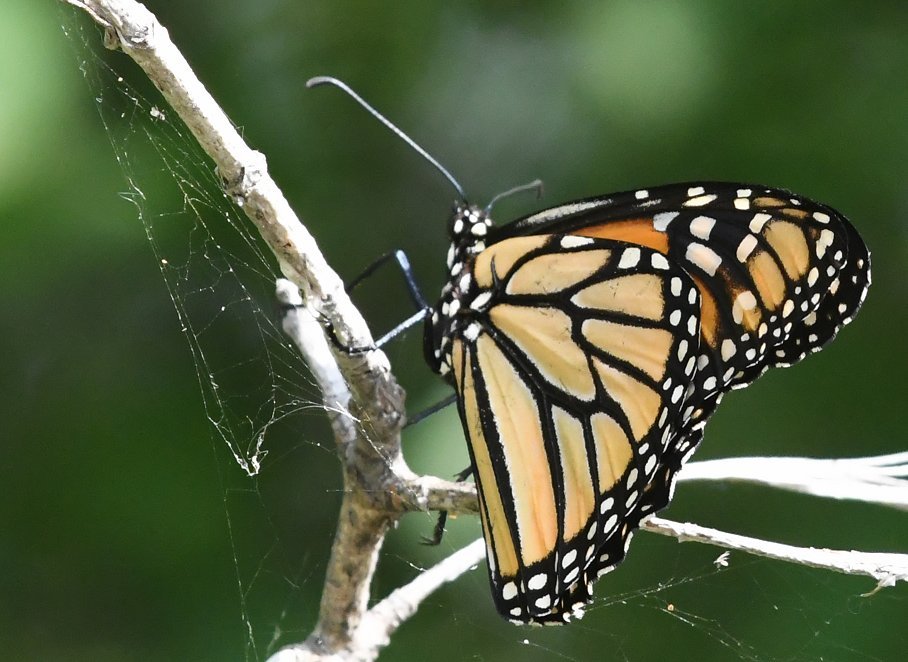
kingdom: Animalia
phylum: Arthropoda
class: Insecta
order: Lepidoptera
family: Nymphalidae
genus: Danaus
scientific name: Danaus plexippus
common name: Monarch
